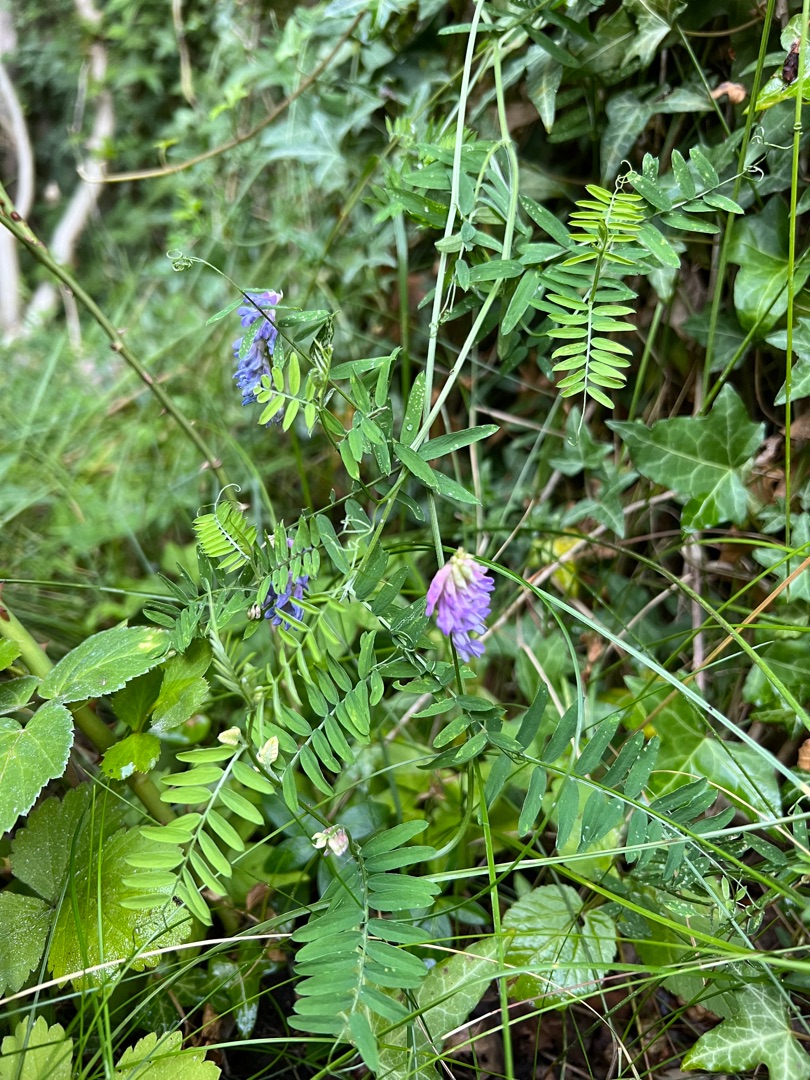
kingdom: Plantae
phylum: Tracheophyta
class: Magnoliopsida
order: Fabales
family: Fabaceae
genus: Vicia
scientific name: Vicia cracca
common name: Muse-vikke
